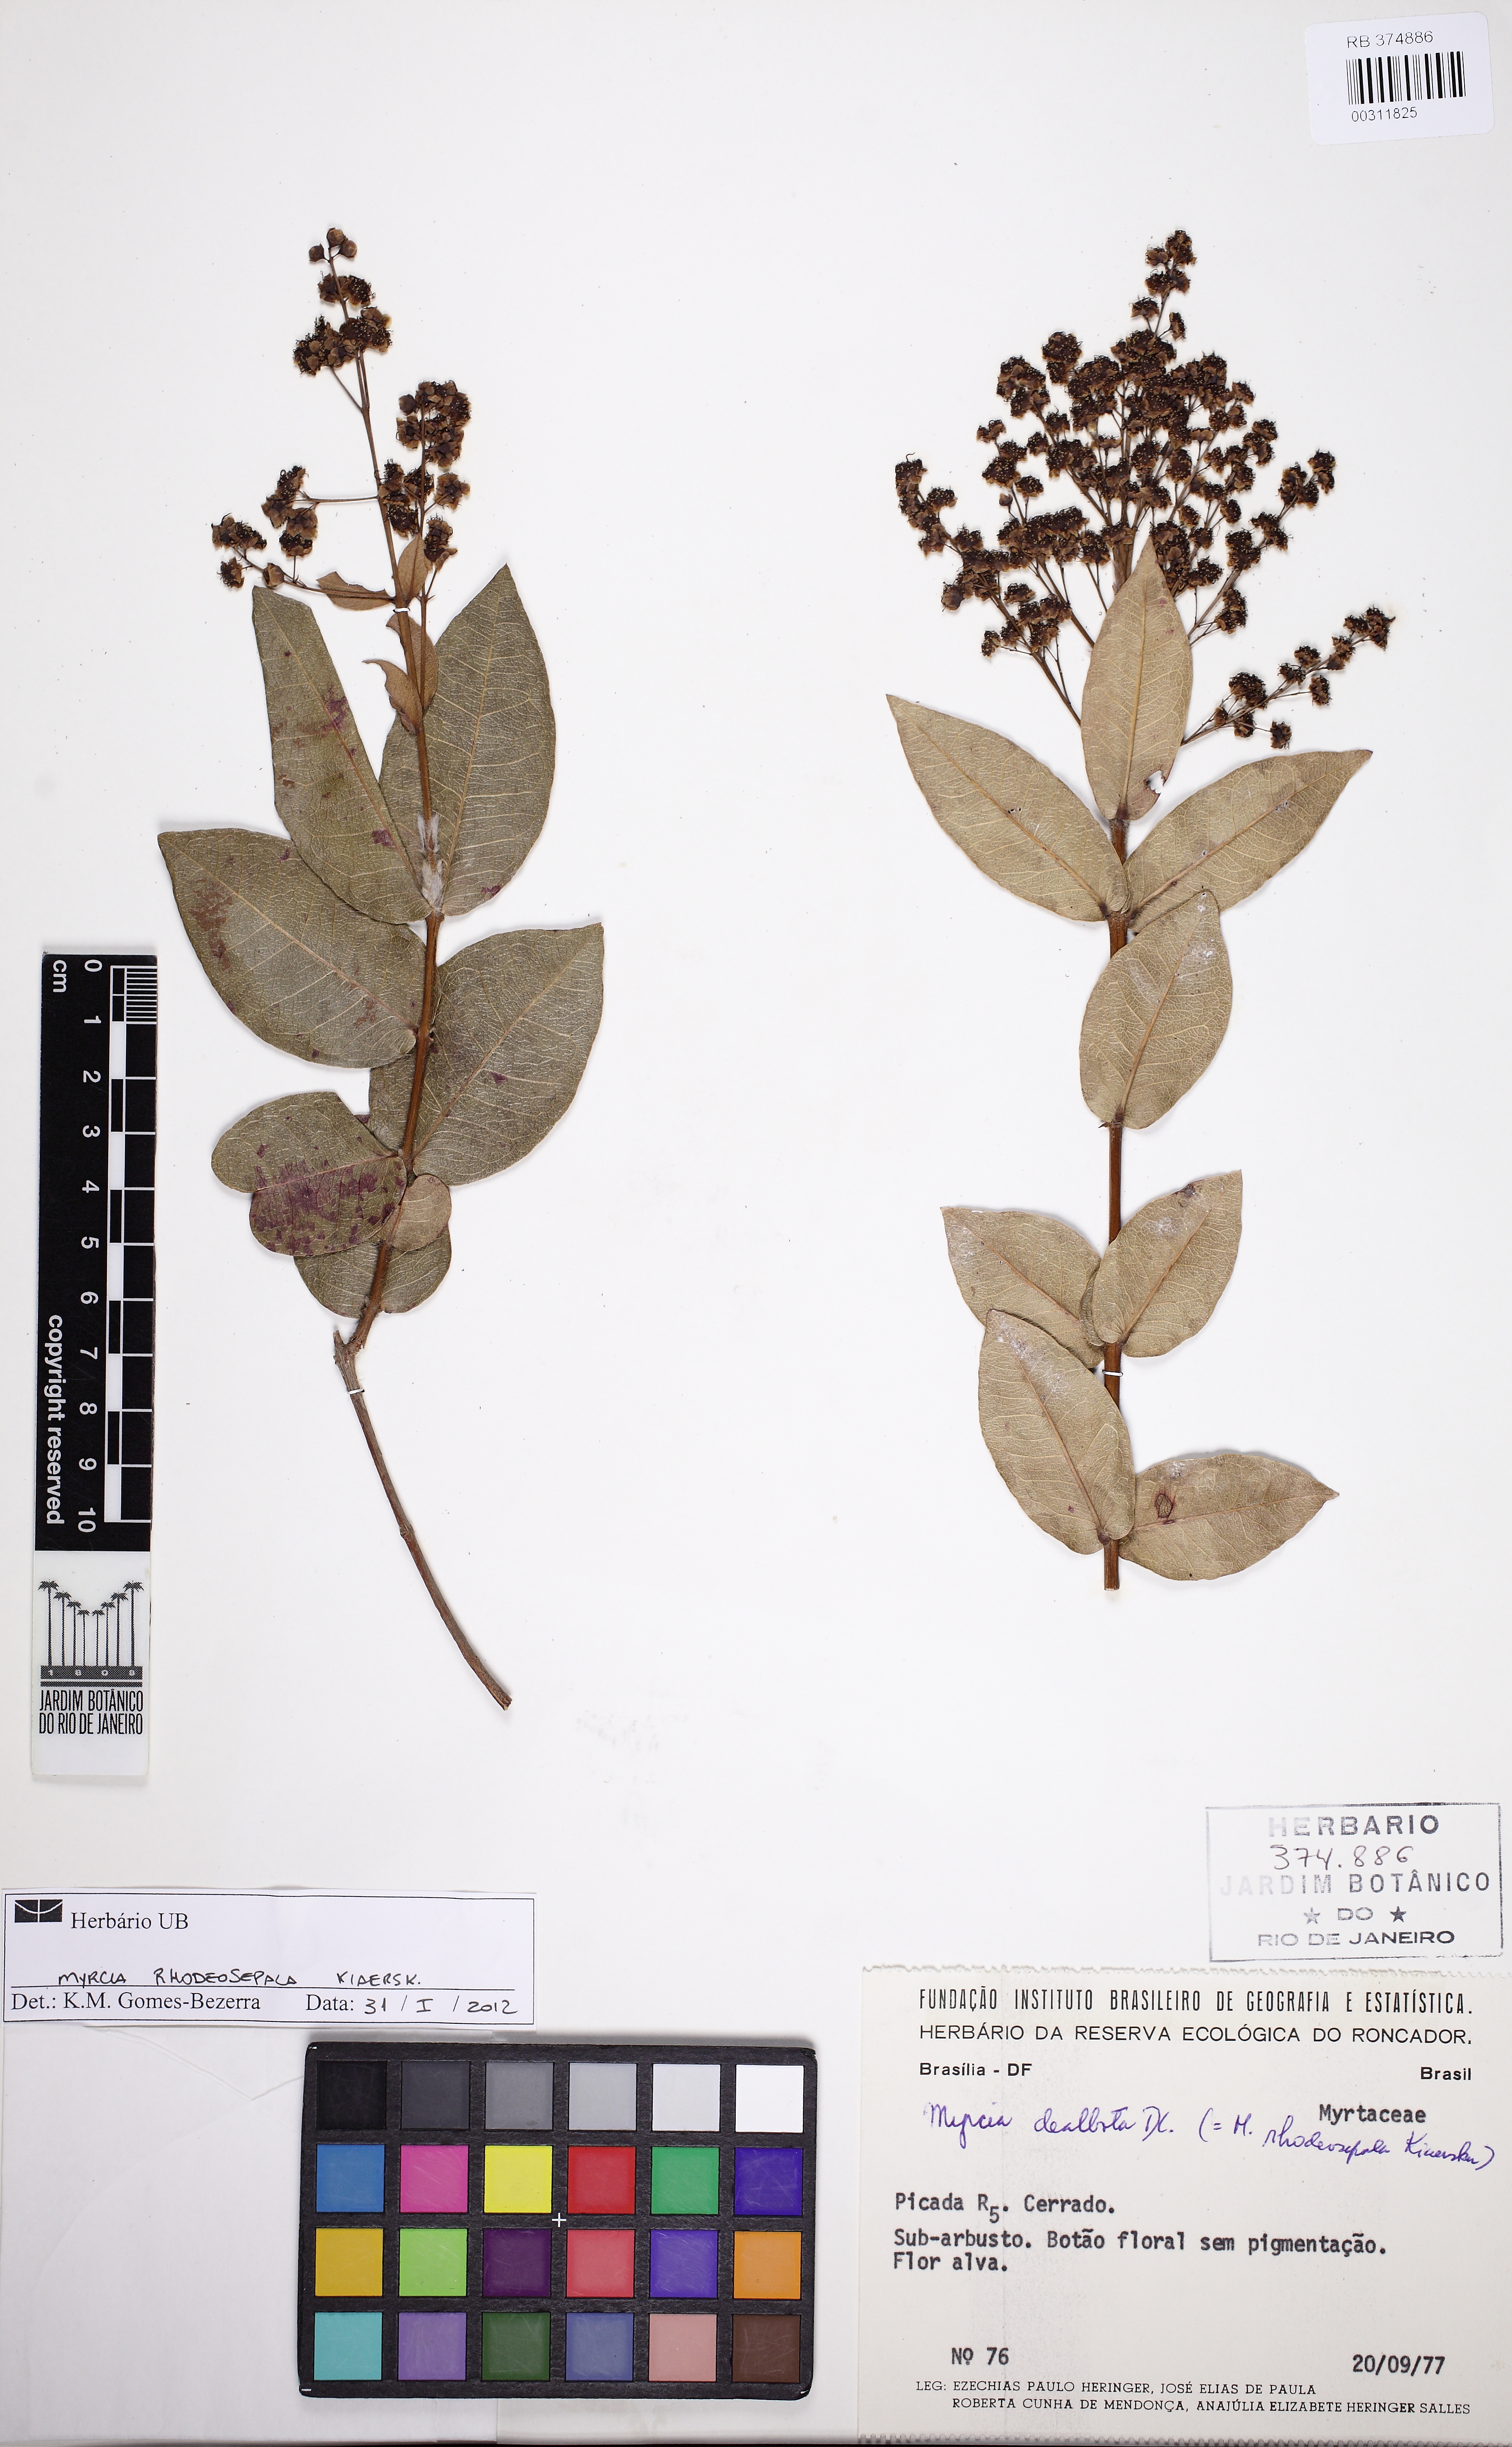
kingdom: Plantae
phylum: Tracheophyta
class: Magnoliopsida
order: Myrtales
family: Myrtaceae
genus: Myrcia
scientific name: Myrcia tomentosa
